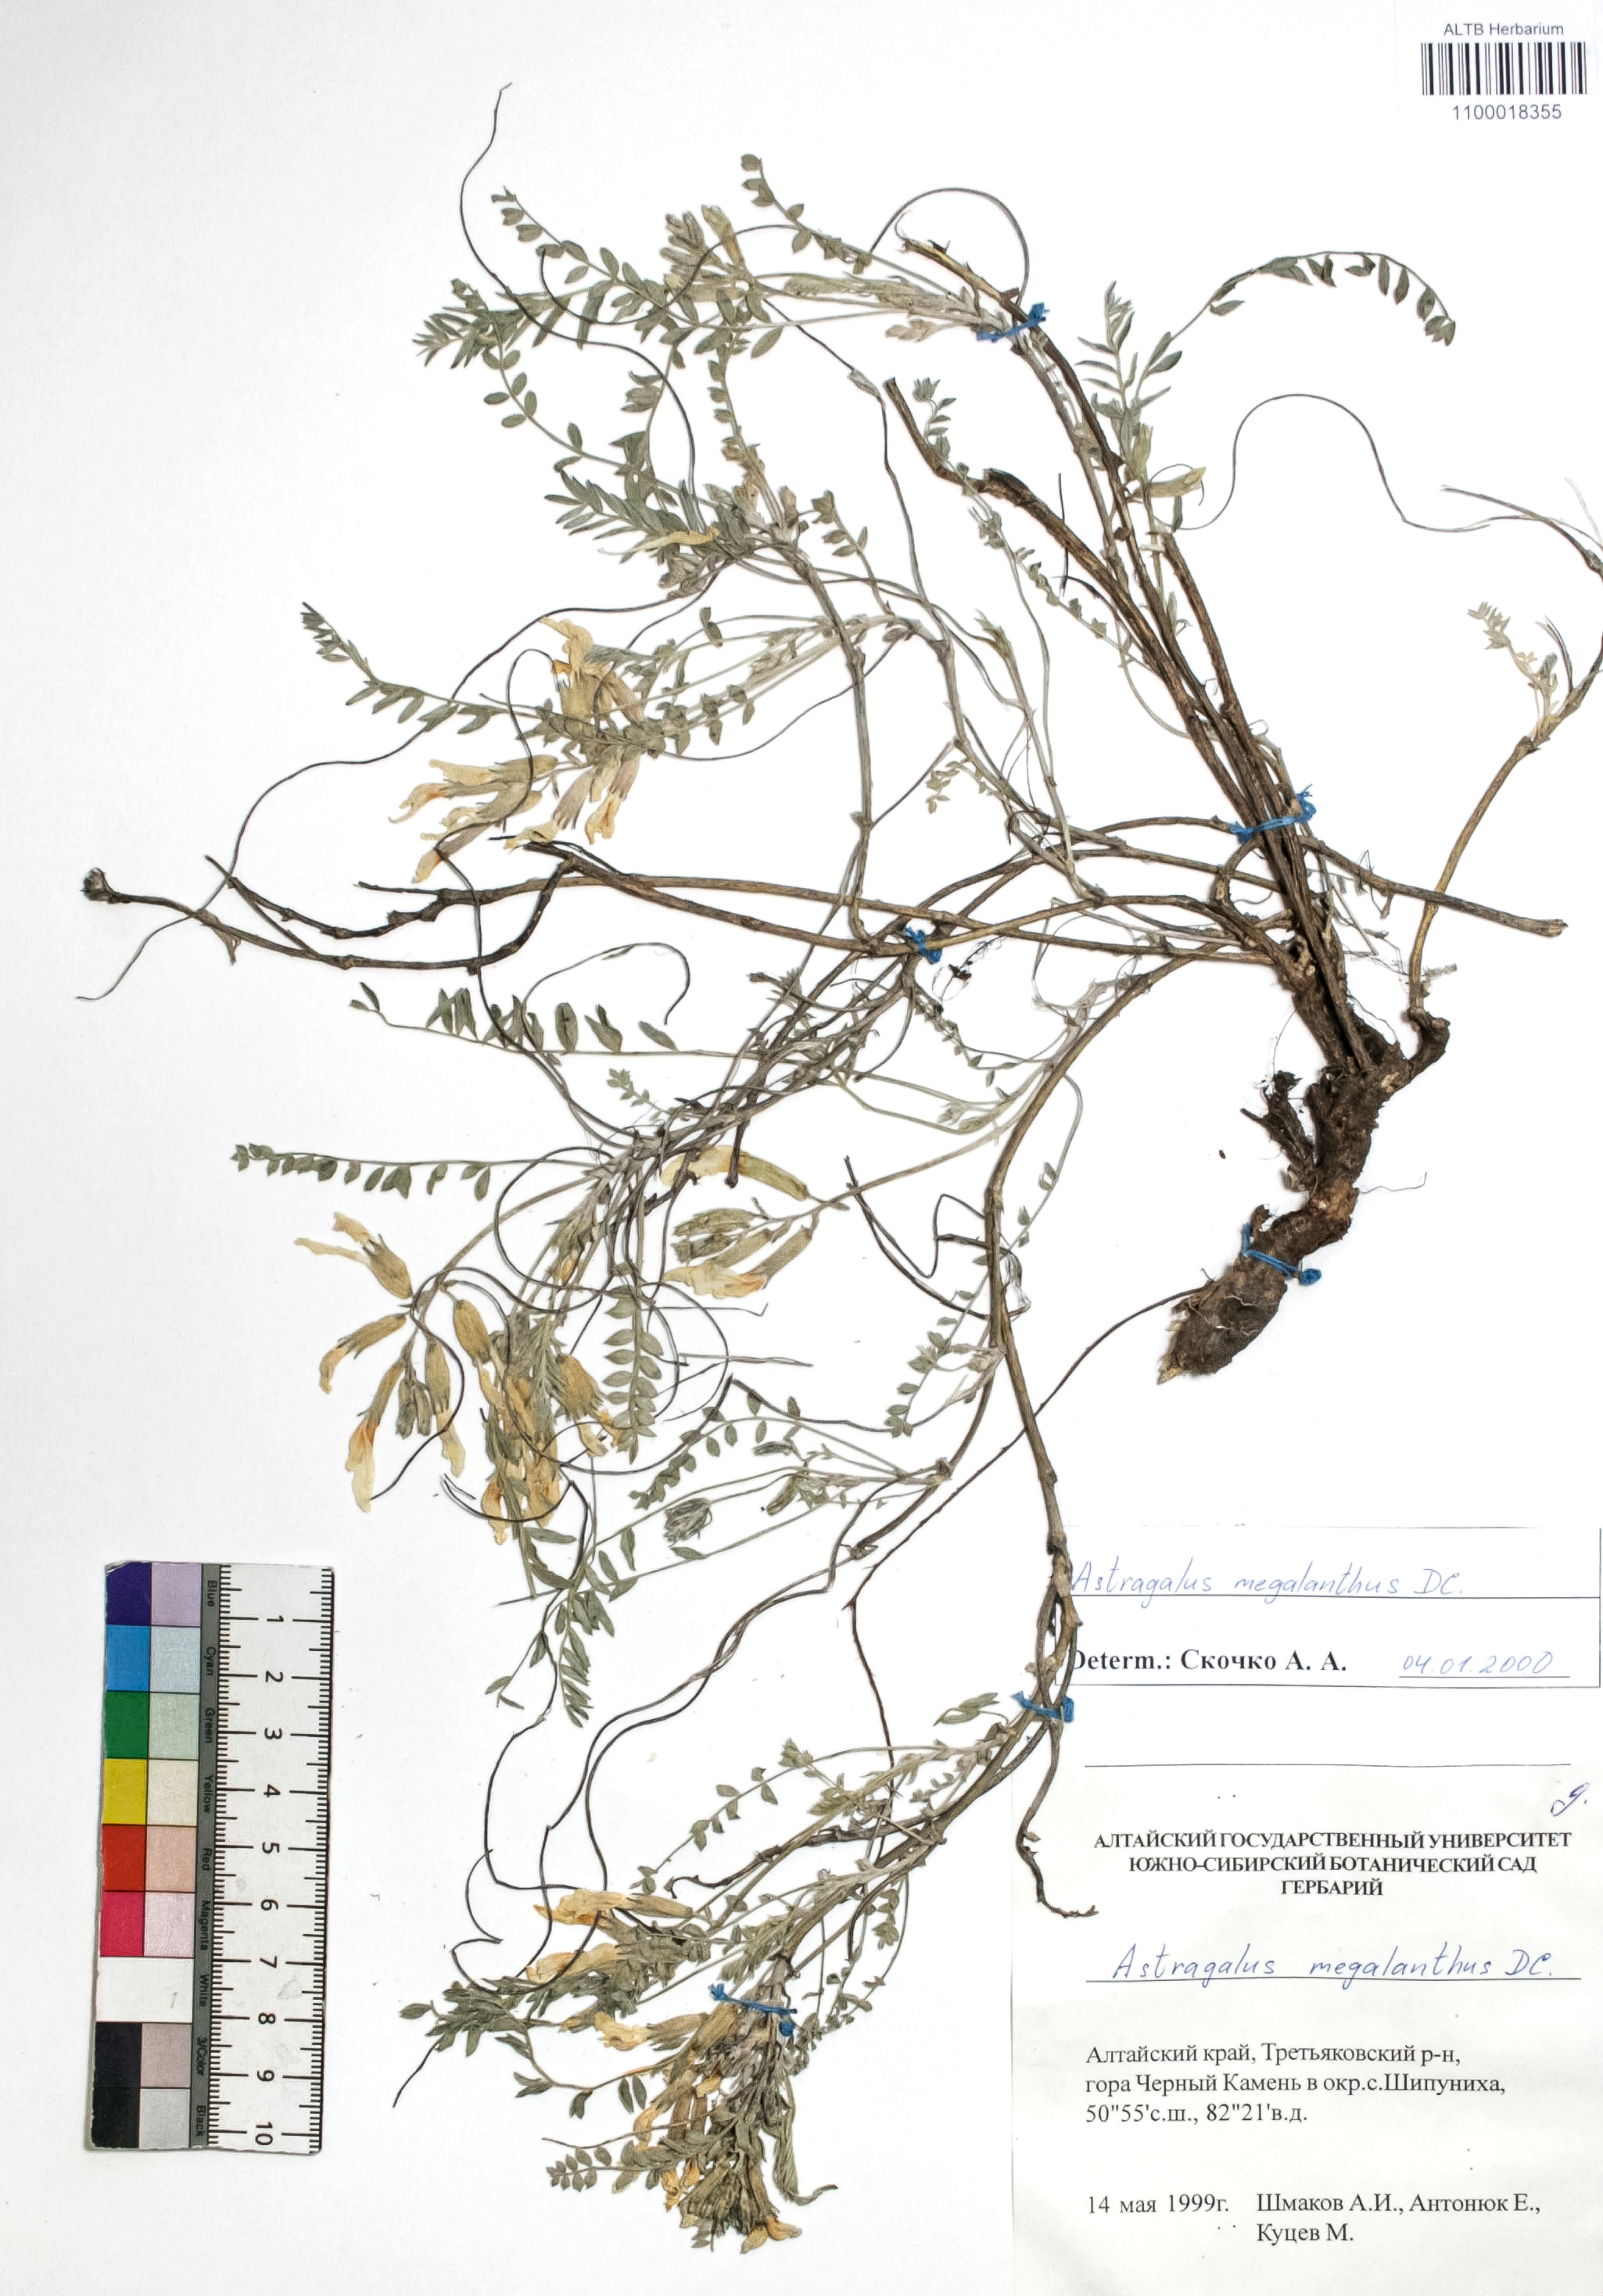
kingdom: Plantae
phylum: Tracheophyta
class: Magnoliopsida
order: Fabales
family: Fabaceae
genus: Astragalus
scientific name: Astragalus leptostachys
